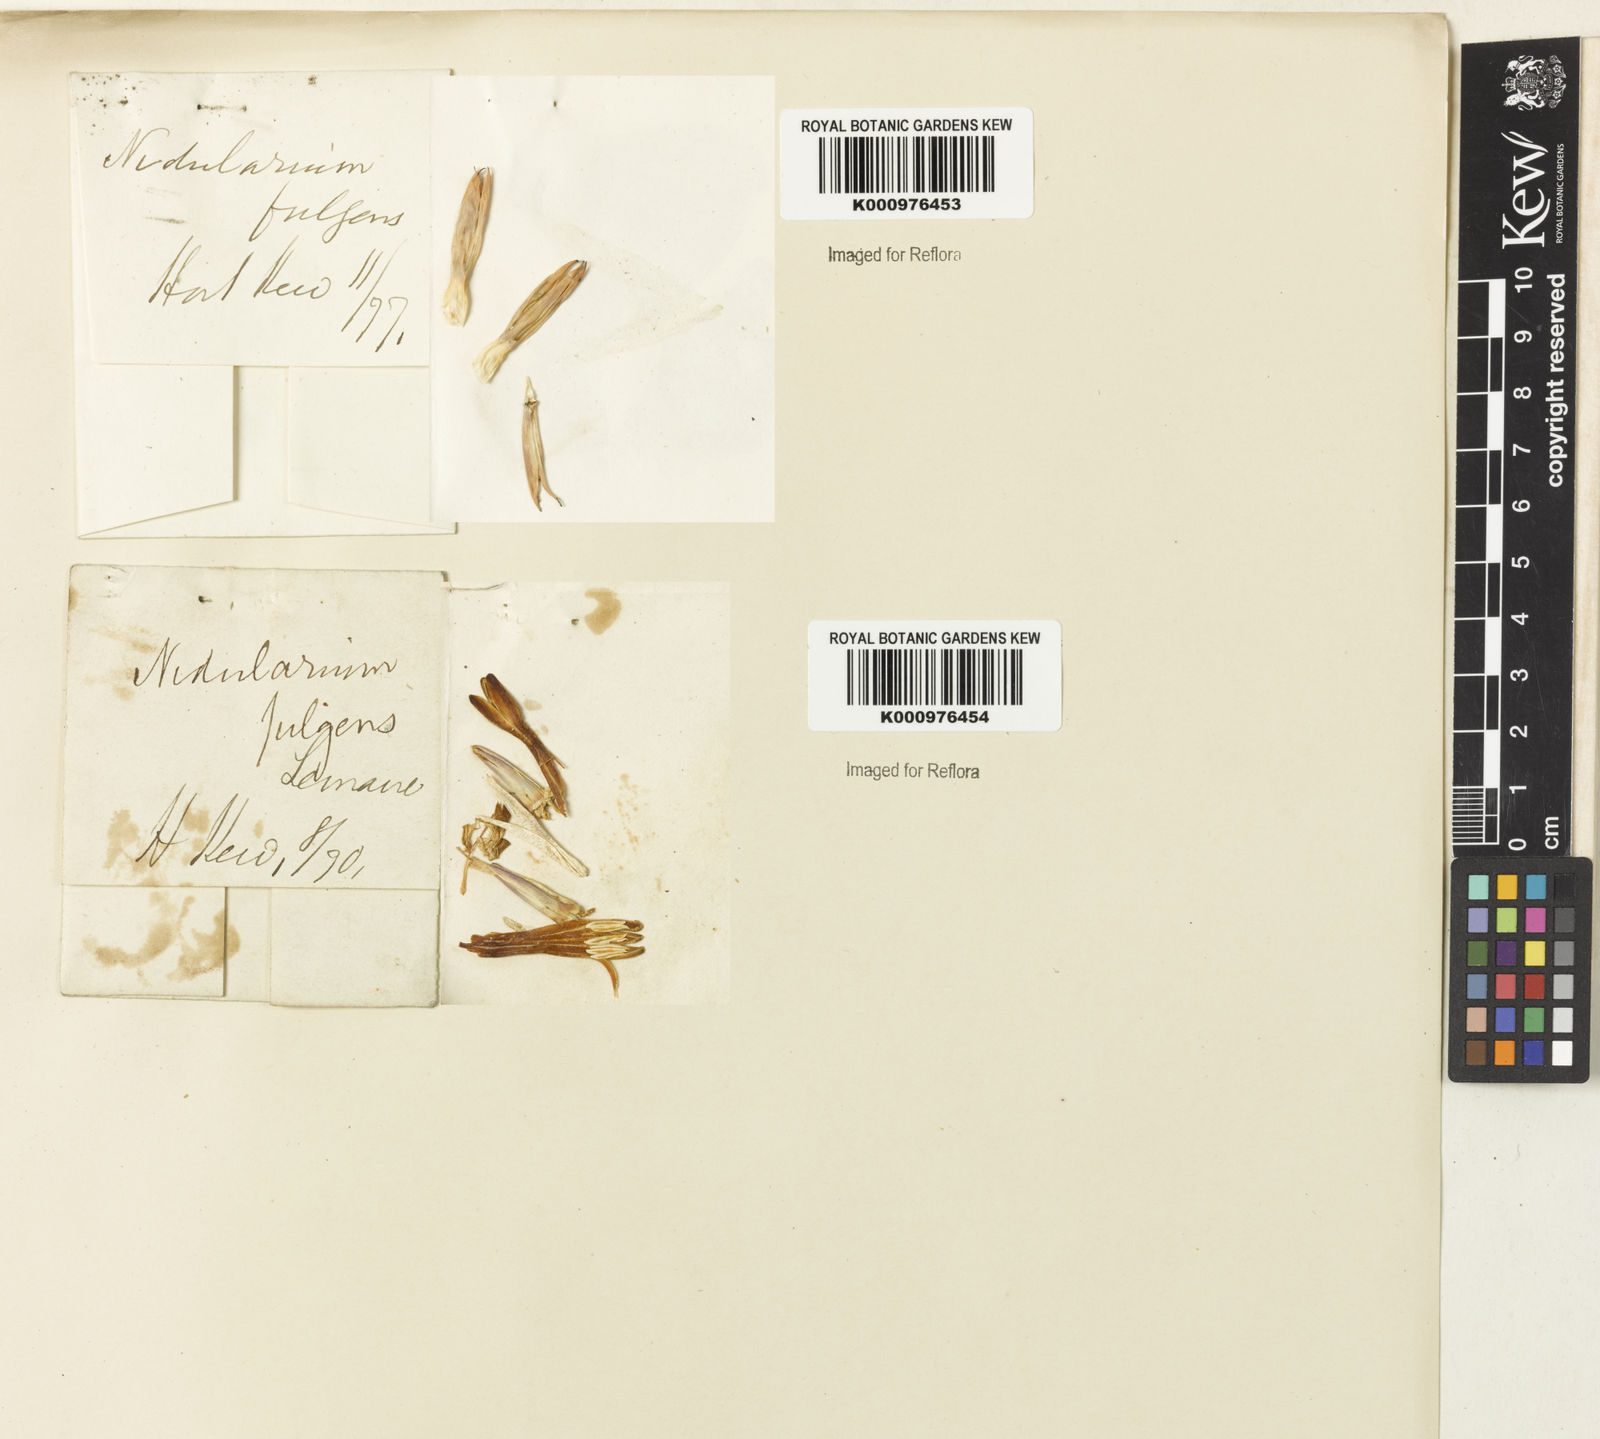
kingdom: Plantae
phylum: Tracheophyta
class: Liliopsida
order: Poales
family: Bromeliaceae
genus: Nidularium
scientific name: Nidularium fulgens
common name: Blushing bromeliad
